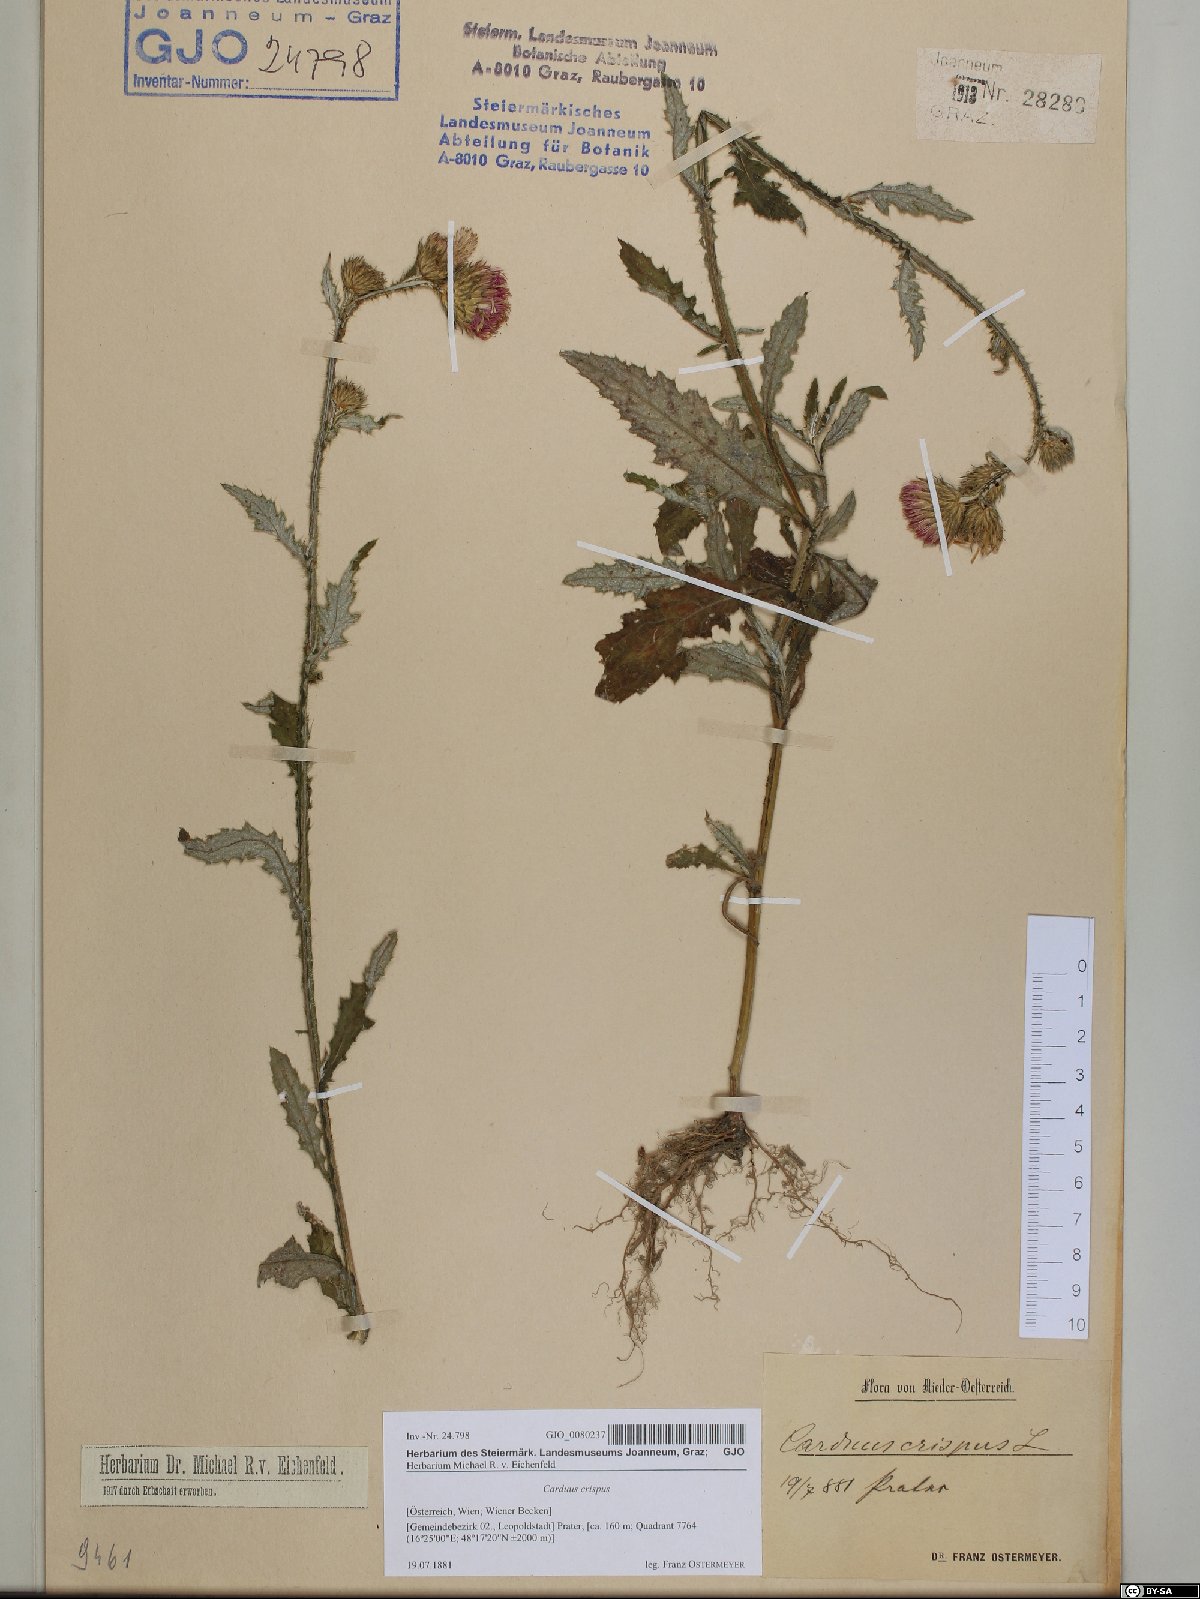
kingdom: Plantae
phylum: Tracheophyta
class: Magnoliopsida
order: Asterales
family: Asteraceae
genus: Carduus
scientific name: Carduus crispus
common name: Welted thistle
